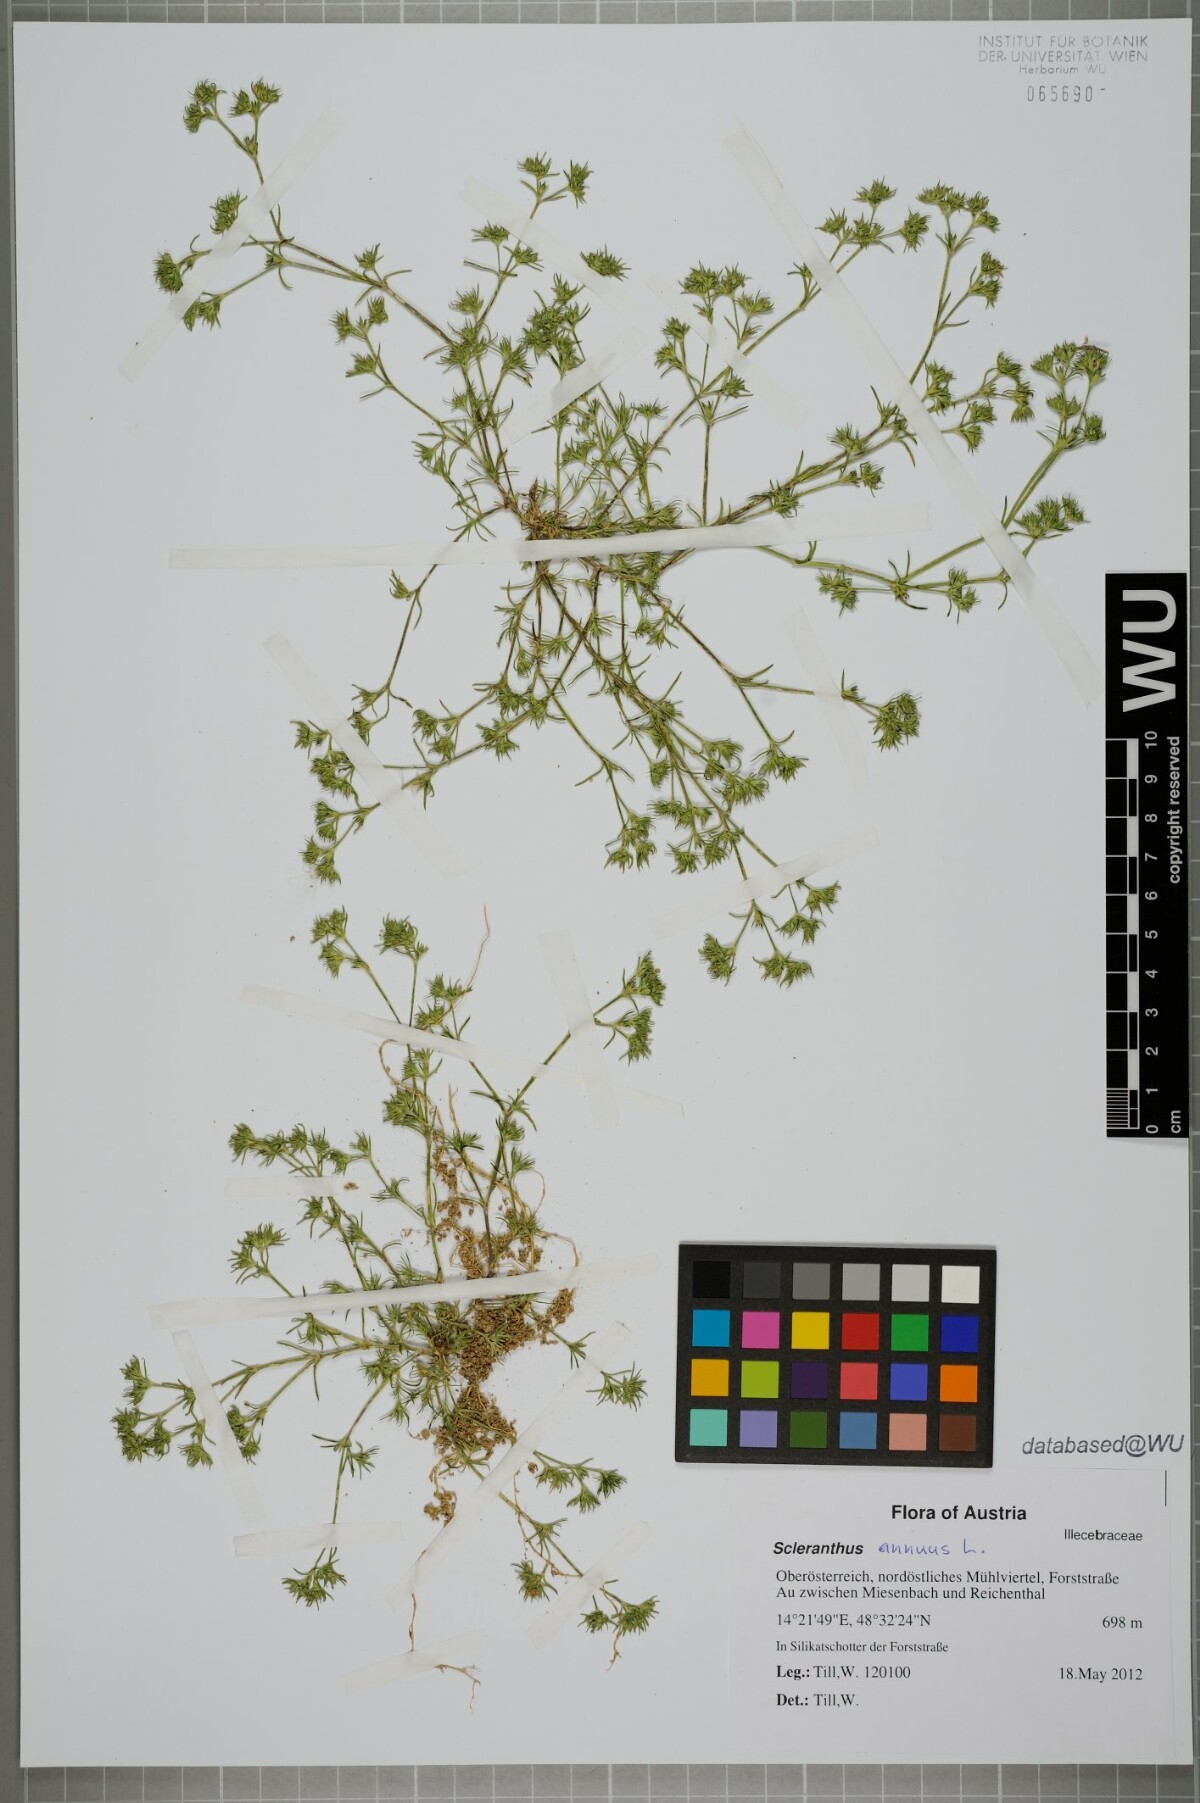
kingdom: Plantae
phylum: Tracheophyta
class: Magnoliopsida
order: Caryophyllales
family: Caryophyllaceae
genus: Scleranthus
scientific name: Scleranthus annuus
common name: Annual knawel
